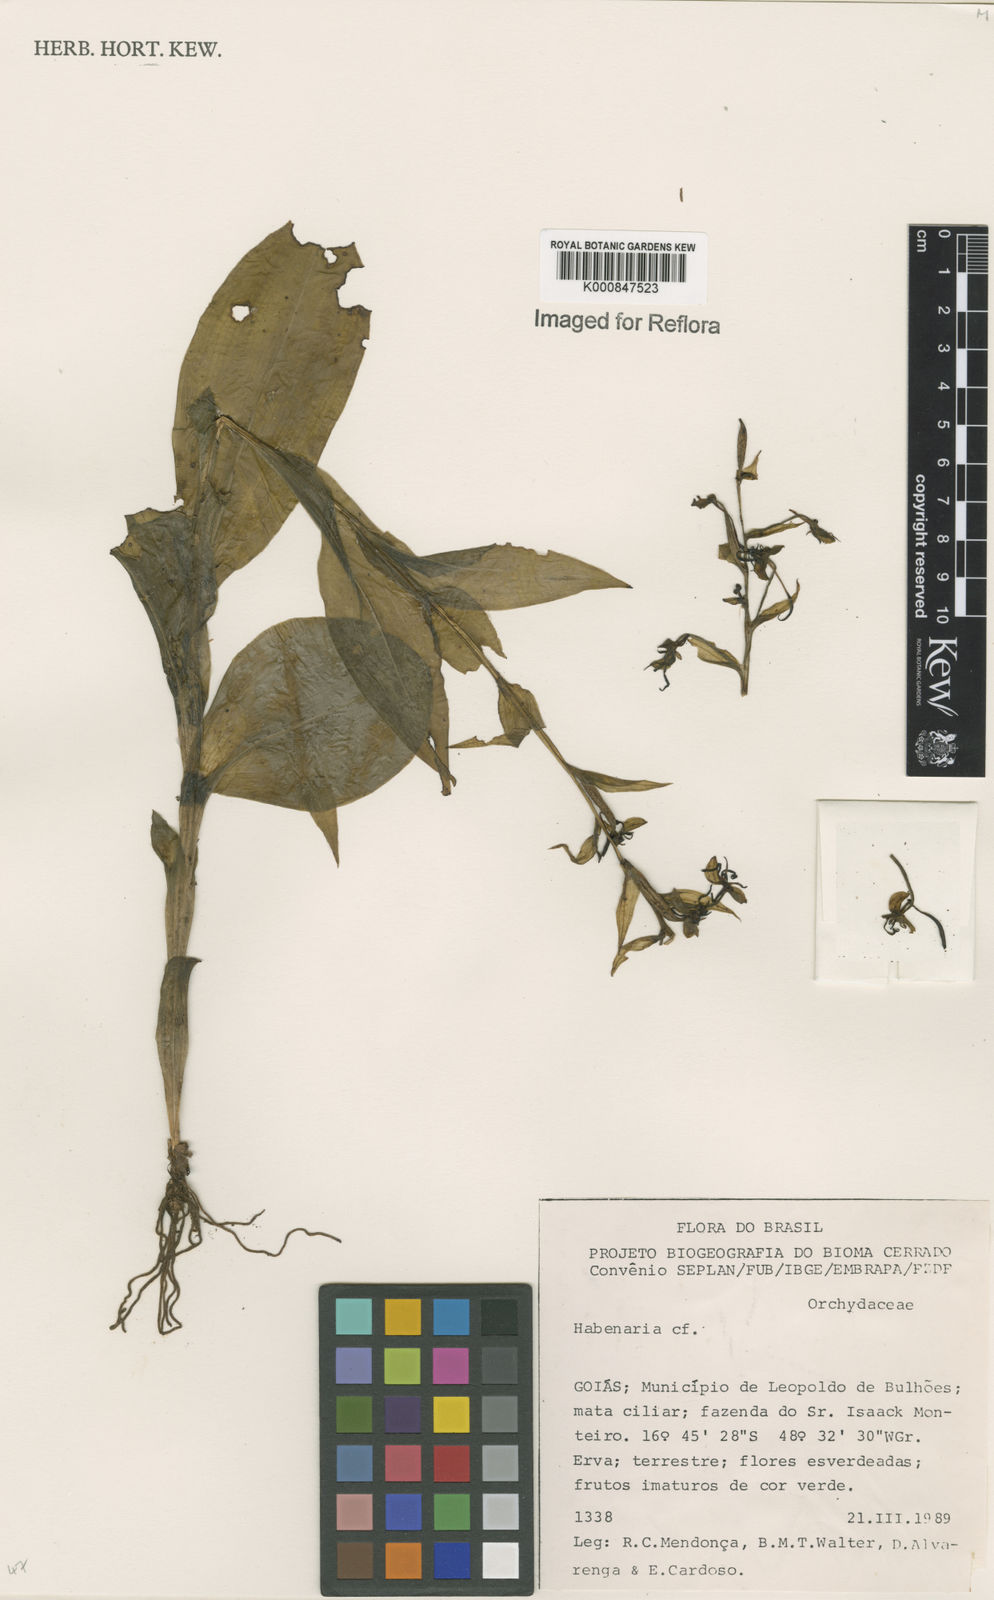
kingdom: Plantae
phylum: Tracheophyta
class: Liliopsida
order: Asparagales
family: Orchidaceae
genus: Habenaria
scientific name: Habenaria
